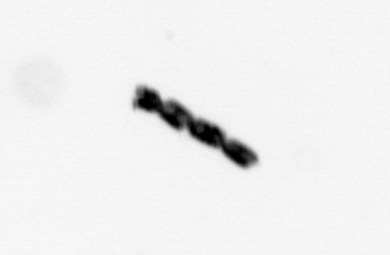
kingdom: Chromista
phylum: Ochrophyta
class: Bacillariophyceae
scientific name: Bacillariophyceae
